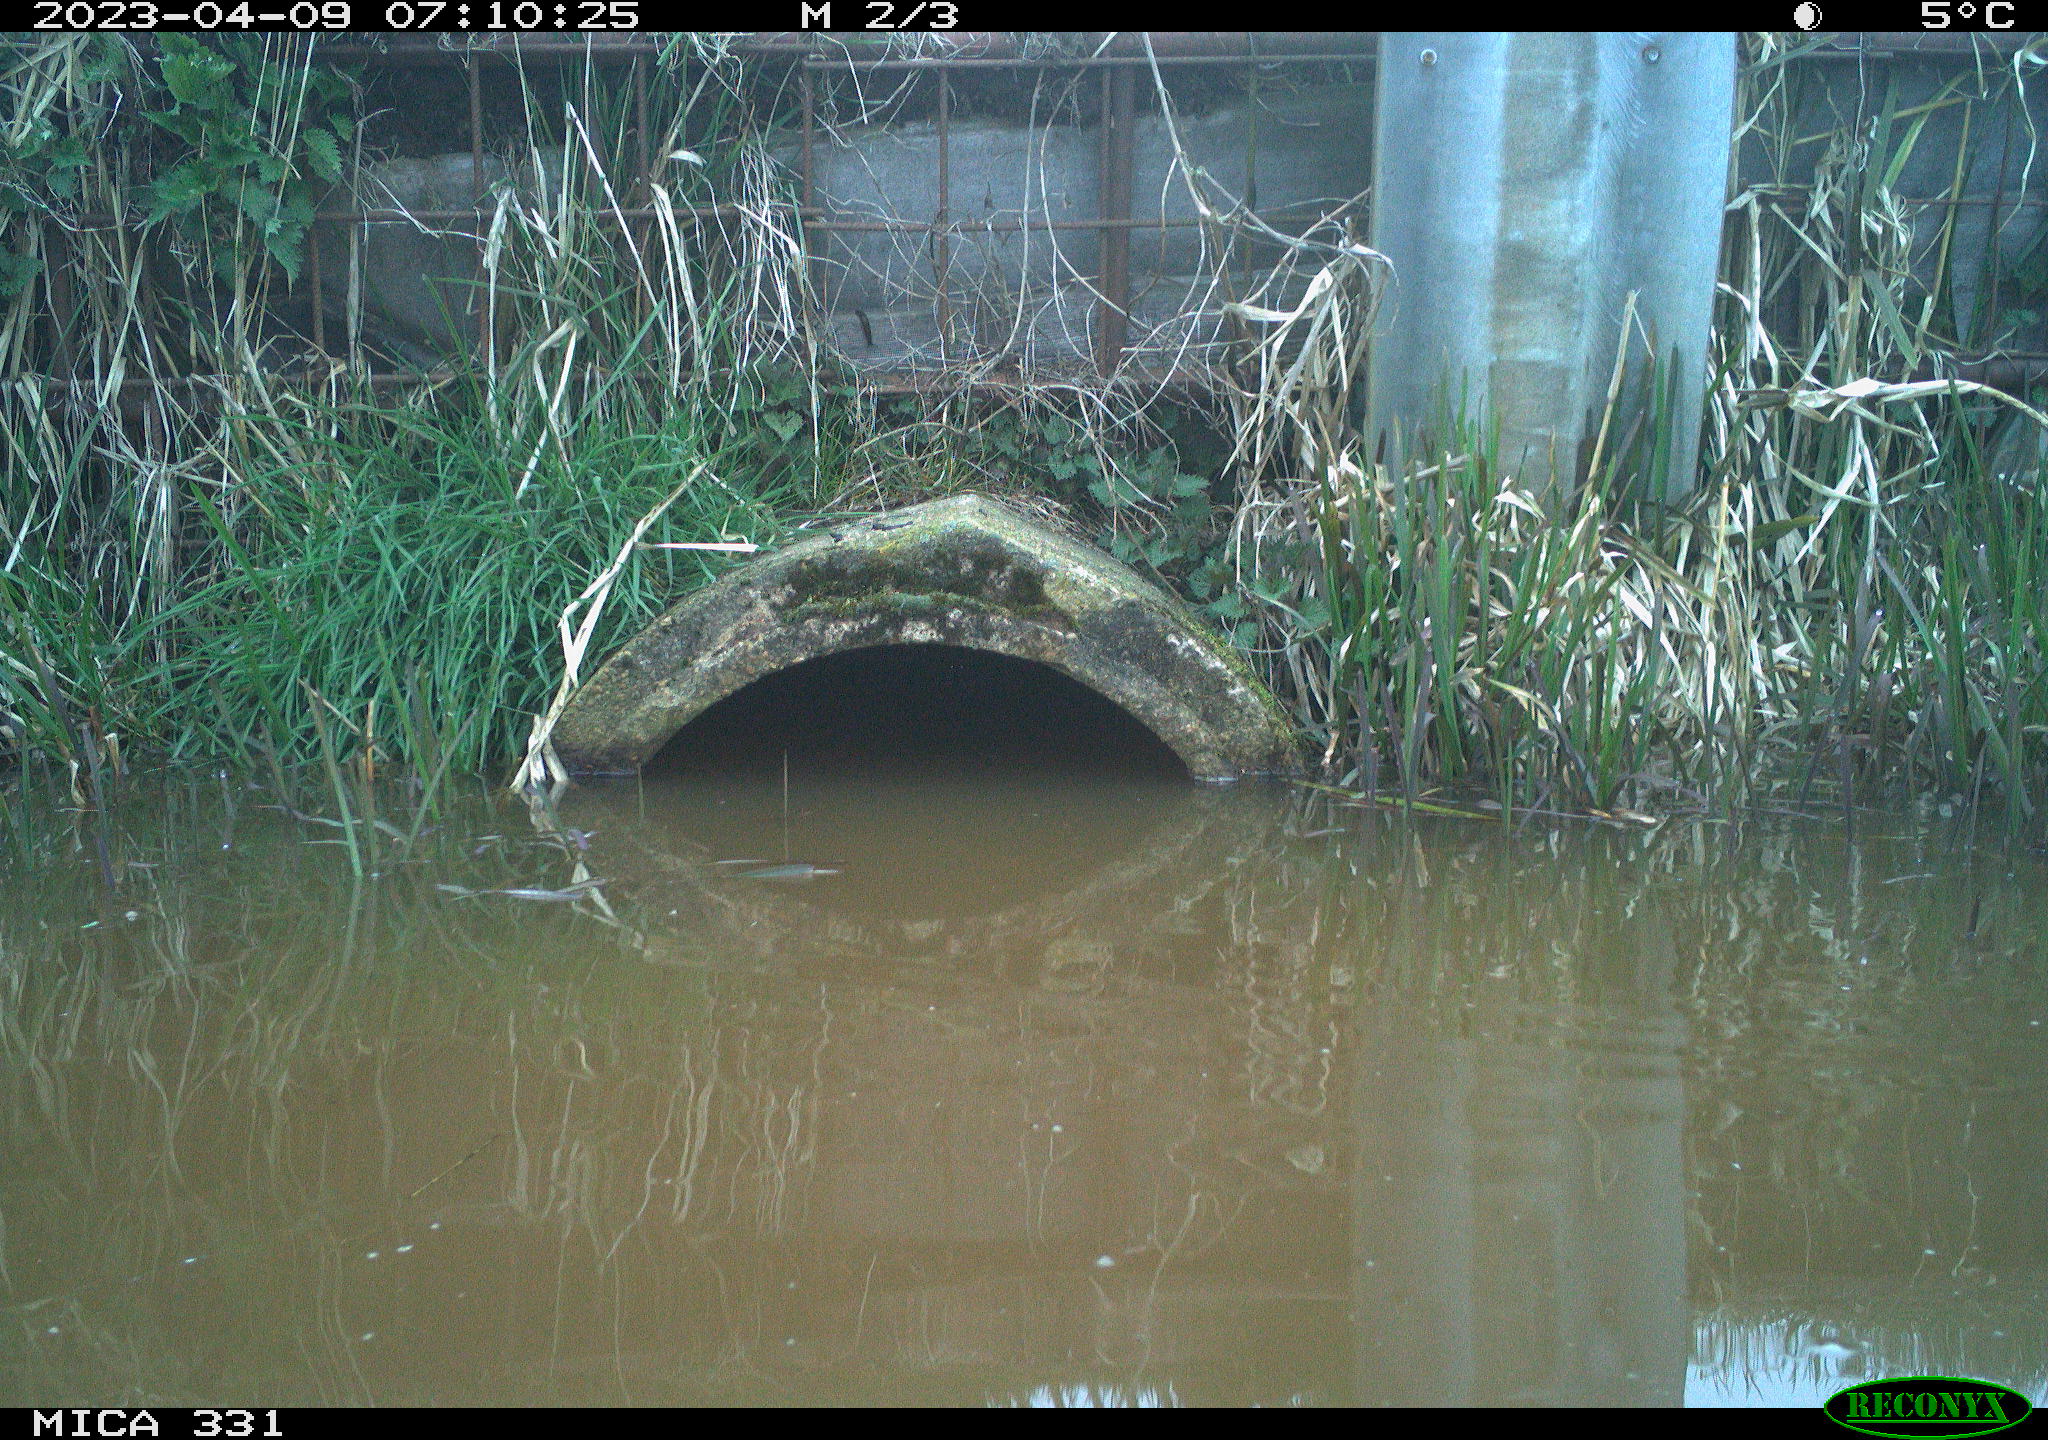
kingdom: Animalia
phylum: Chordata
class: Aves
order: Gruiformes
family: Rallidae
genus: Gallinula
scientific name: Gallinula chloropus
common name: Common moorhen
